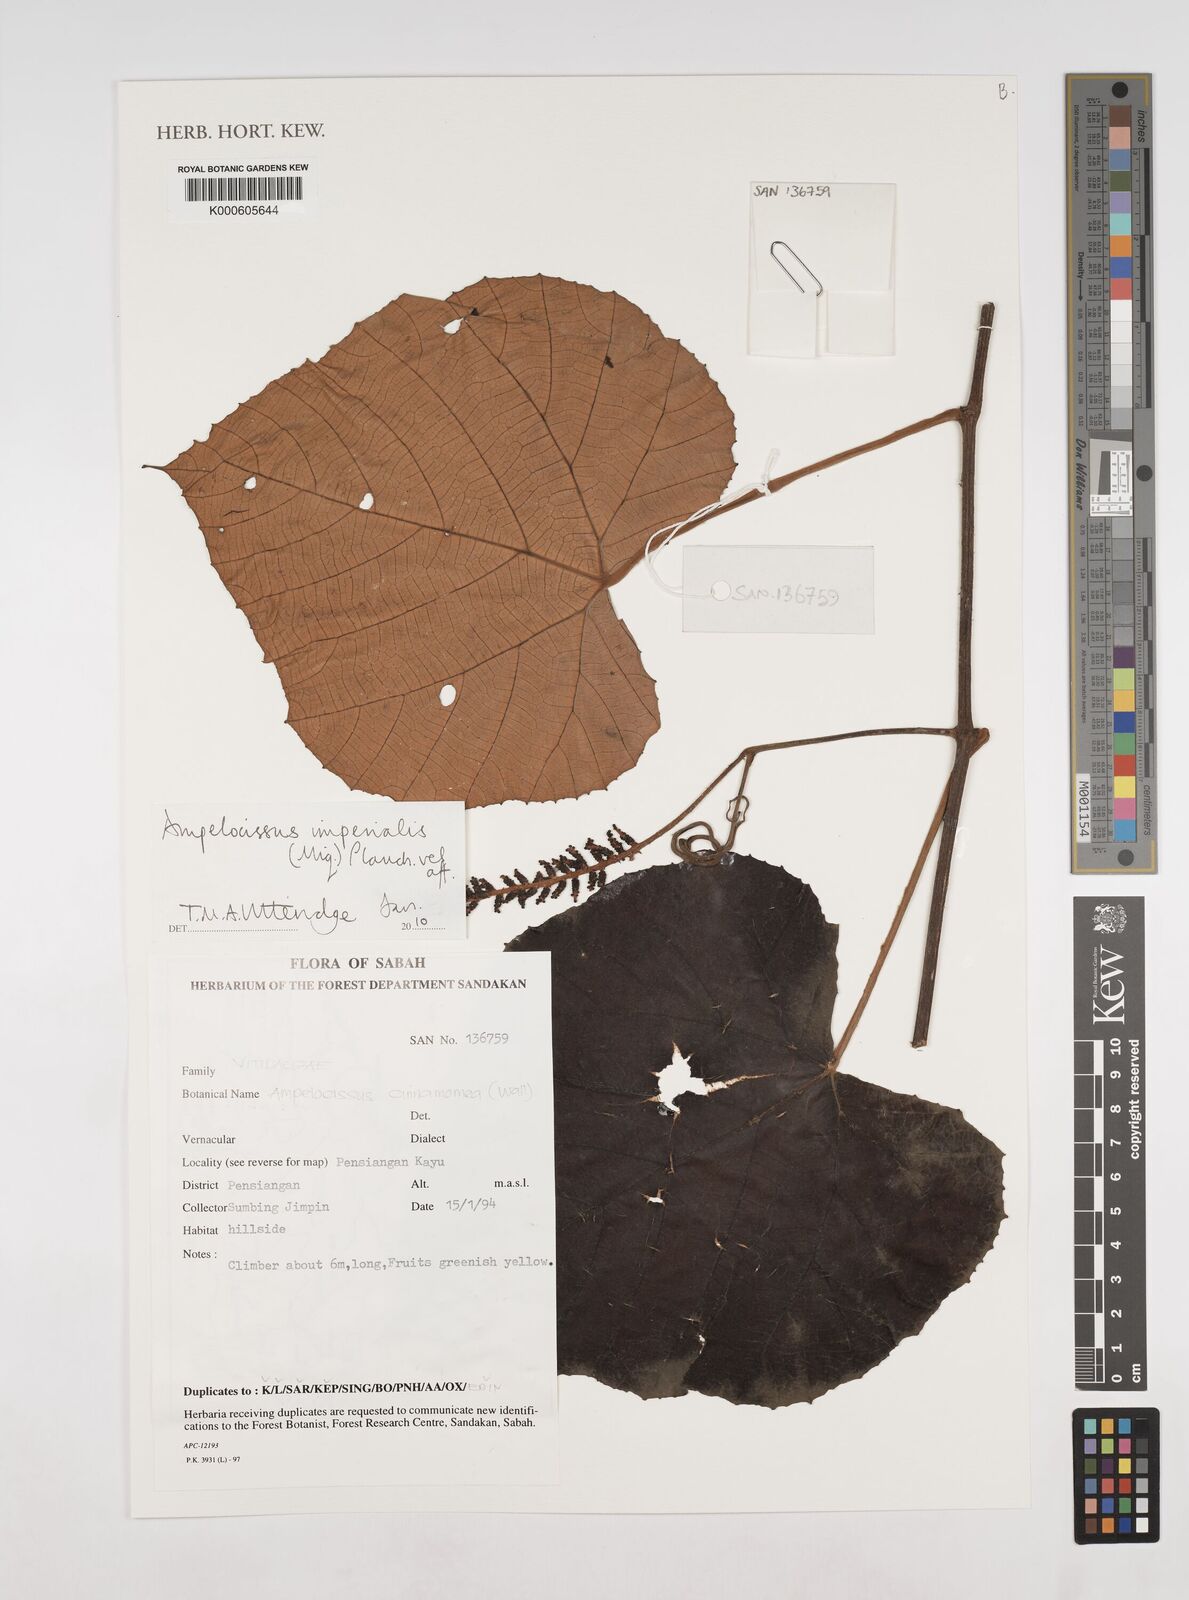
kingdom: Plantae
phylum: Tracheophyta
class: Magnoliopsida
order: Vitales
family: Vitaceae
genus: Ampelocissus
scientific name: Ampelocissus imperialis
